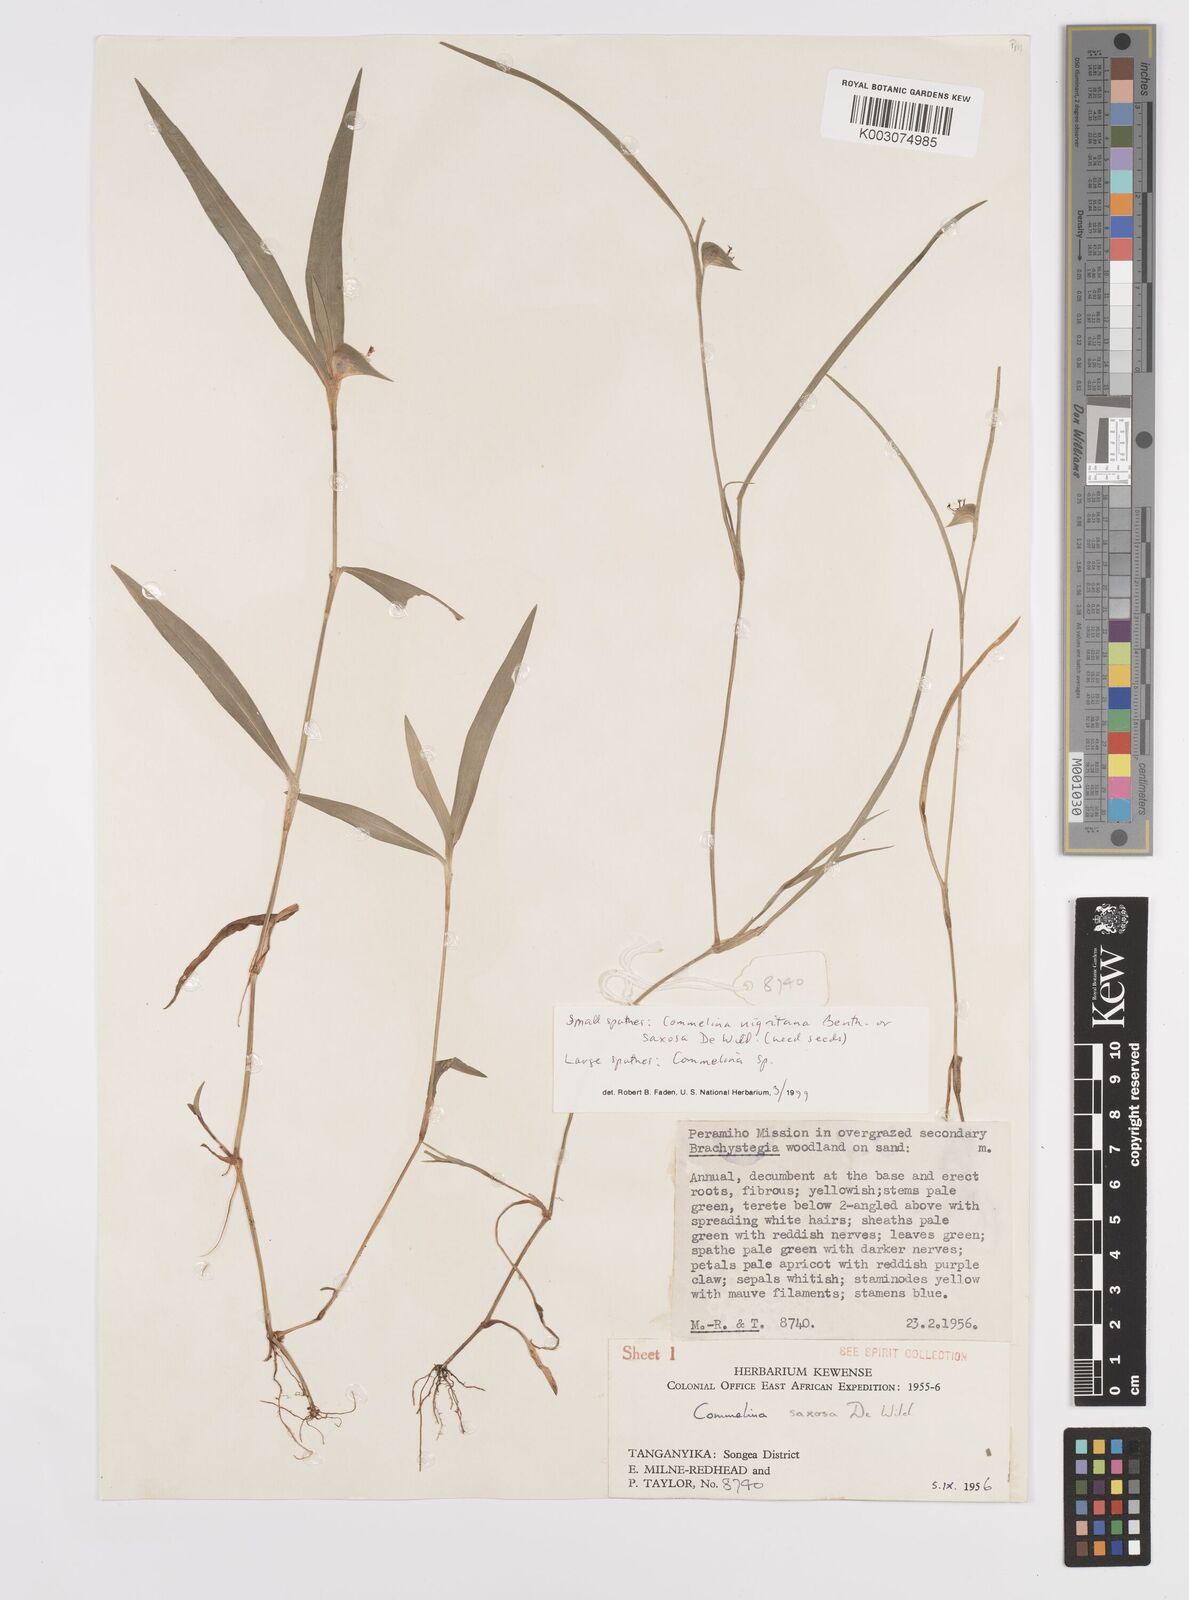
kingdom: Plantae
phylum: Tracheophyta
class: Liliopsida
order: Commelinales
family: Commelinaceae
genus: Commelina
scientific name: Commelina
